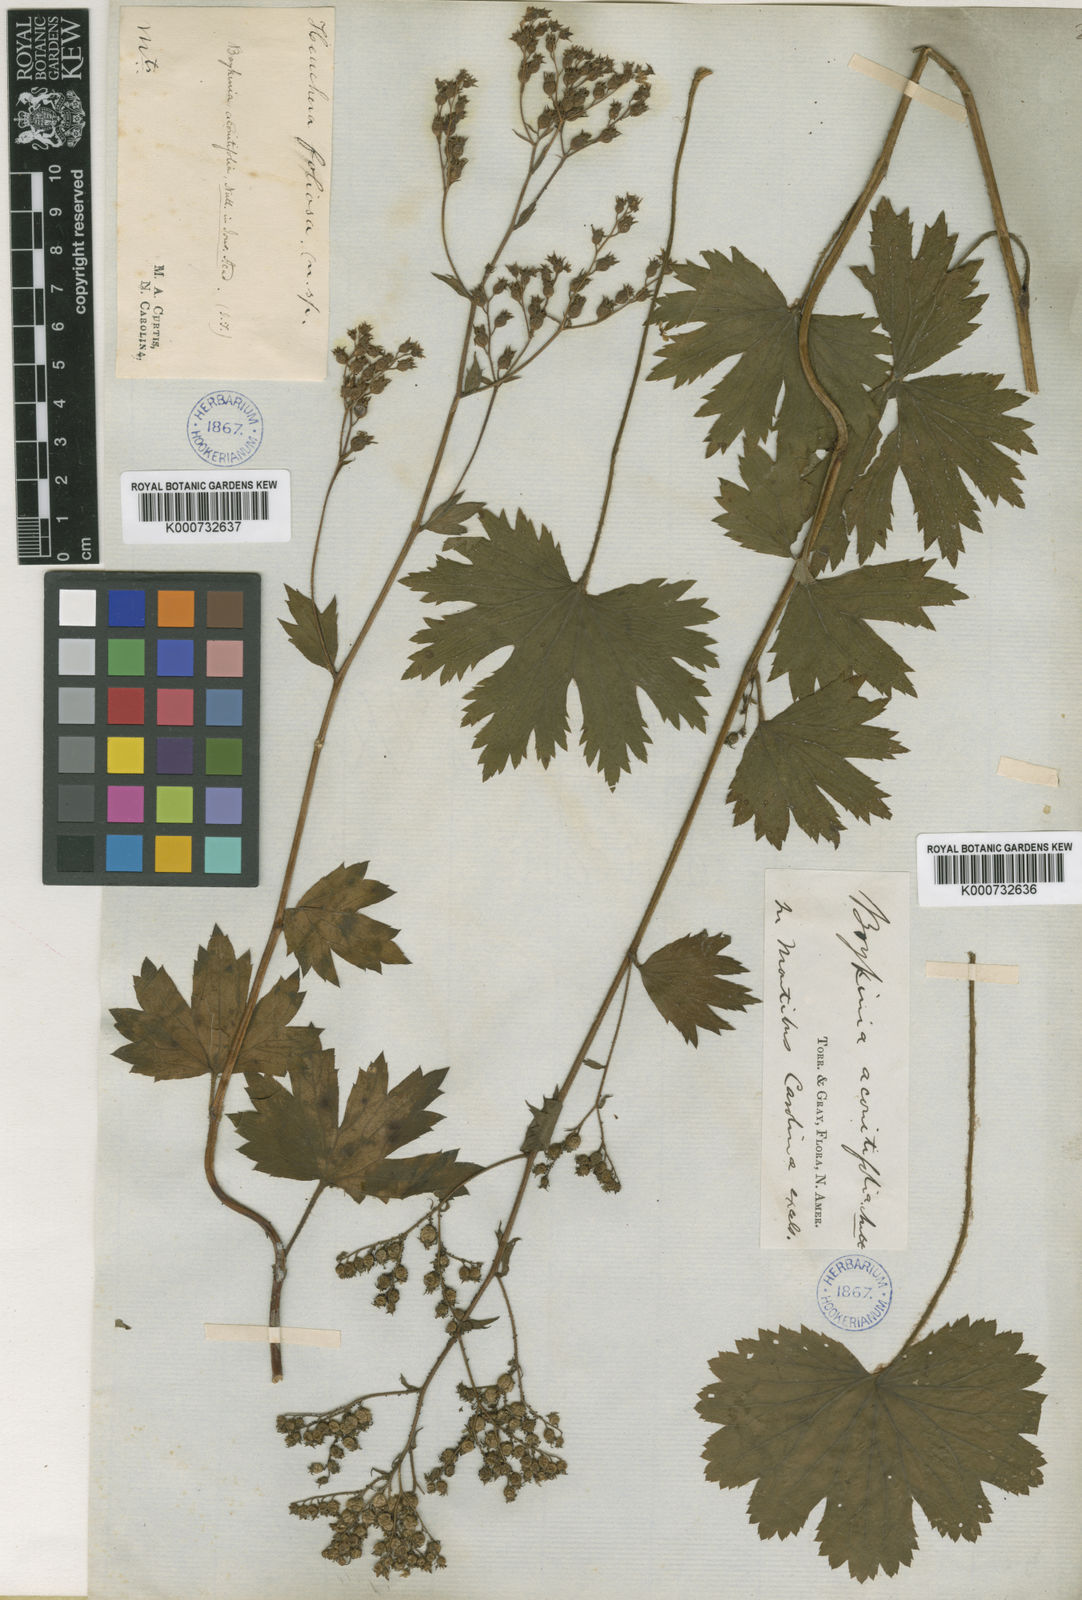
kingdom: Plantae
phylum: Tracheophyta
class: Magnoliopsida
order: Saxifragales
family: Saxifragaceae
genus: Boykinia
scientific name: Boykinia aconitifolia
